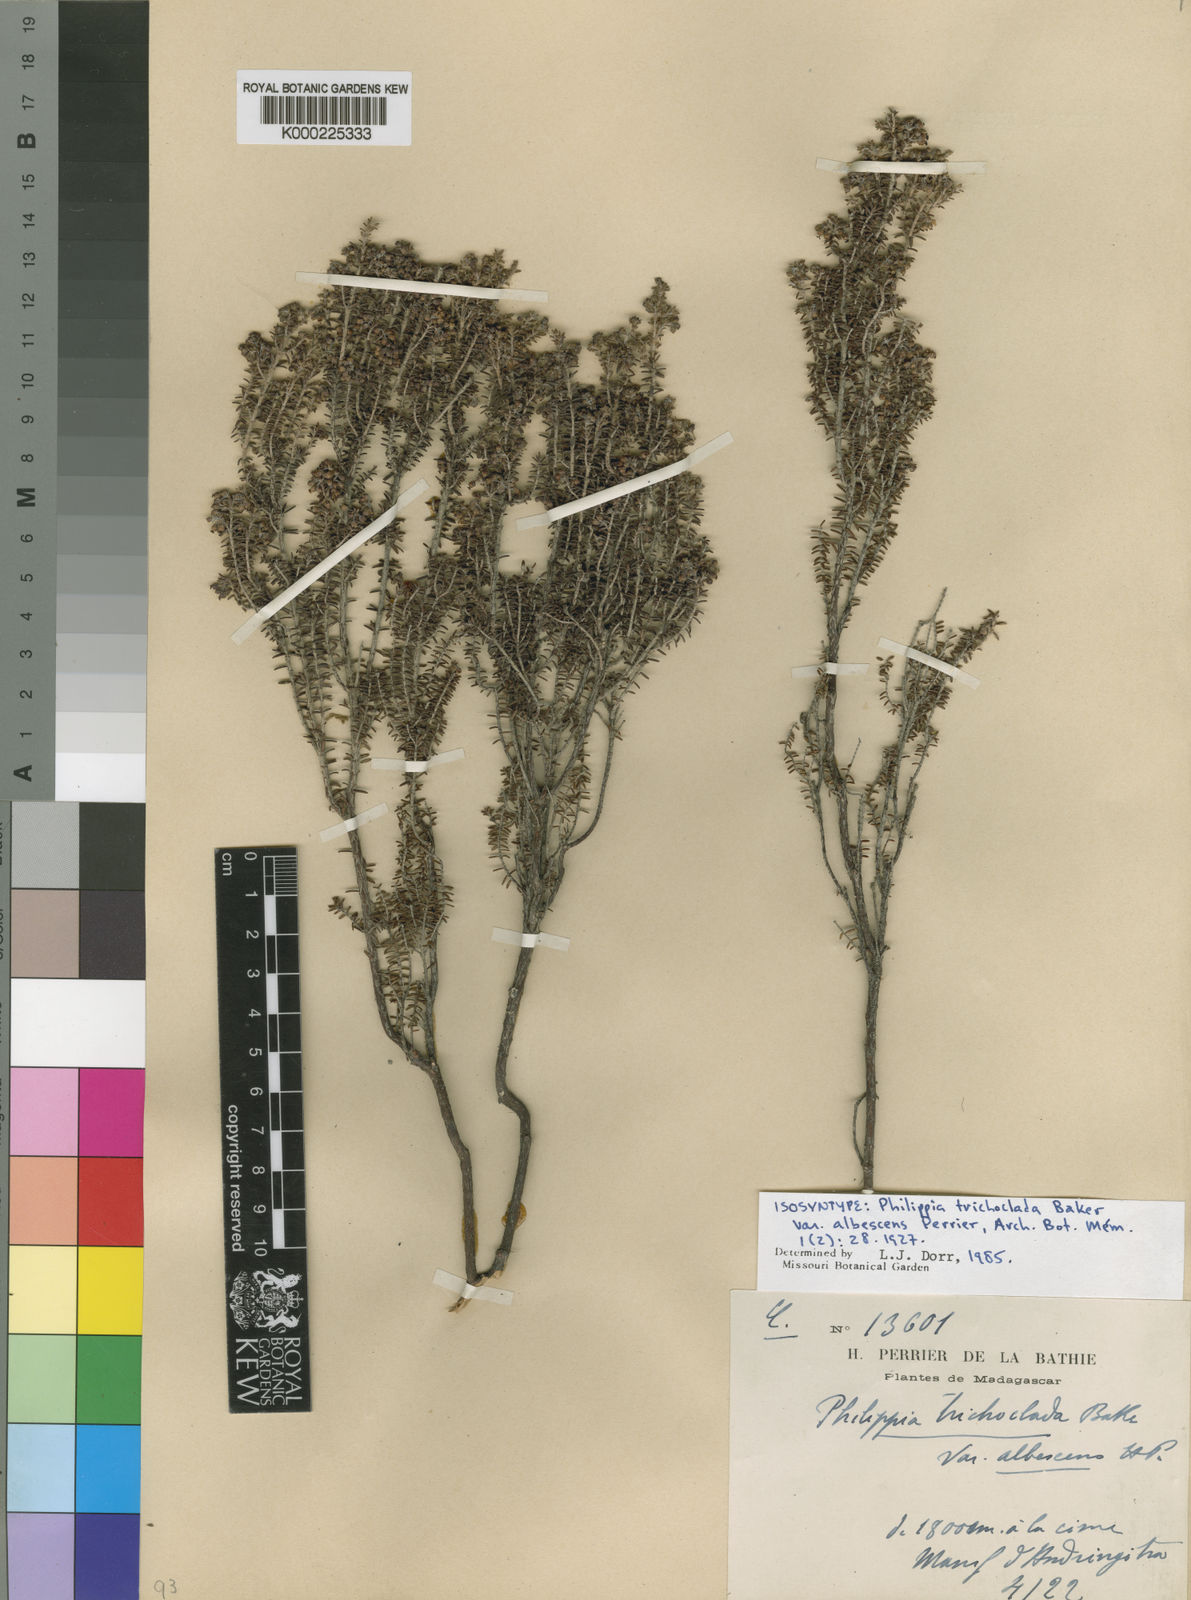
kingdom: Plantae
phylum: Tracheophyta
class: Magnoliopsida
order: Ericales
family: Ericaceae
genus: Erica
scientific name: Erica hebeclada
